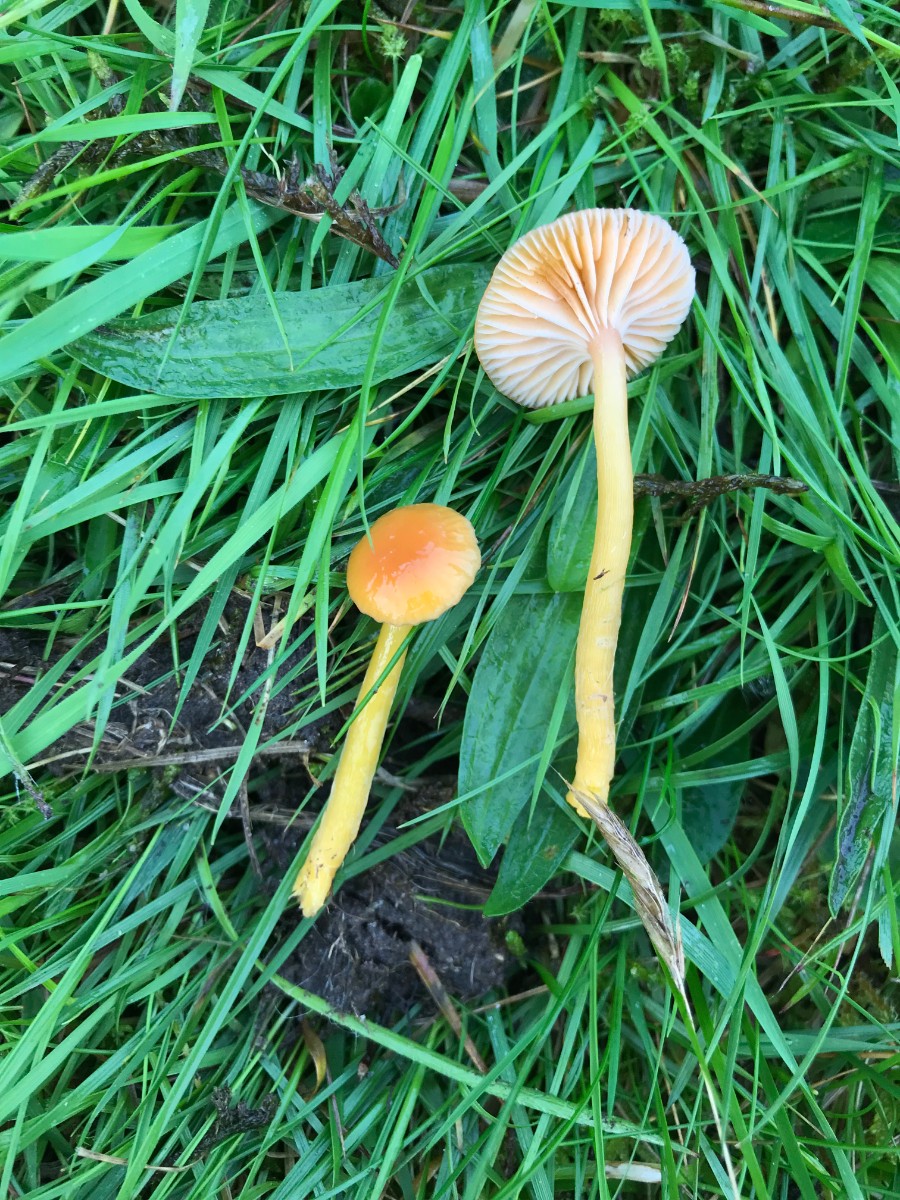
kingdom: Fungi
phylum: Basidiomycota
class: Agaricomycetes
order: Agaricales
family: Hygrophoraceae
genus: Gliophorus
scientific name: Gliophorus laetus
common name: brusk-vokshat
